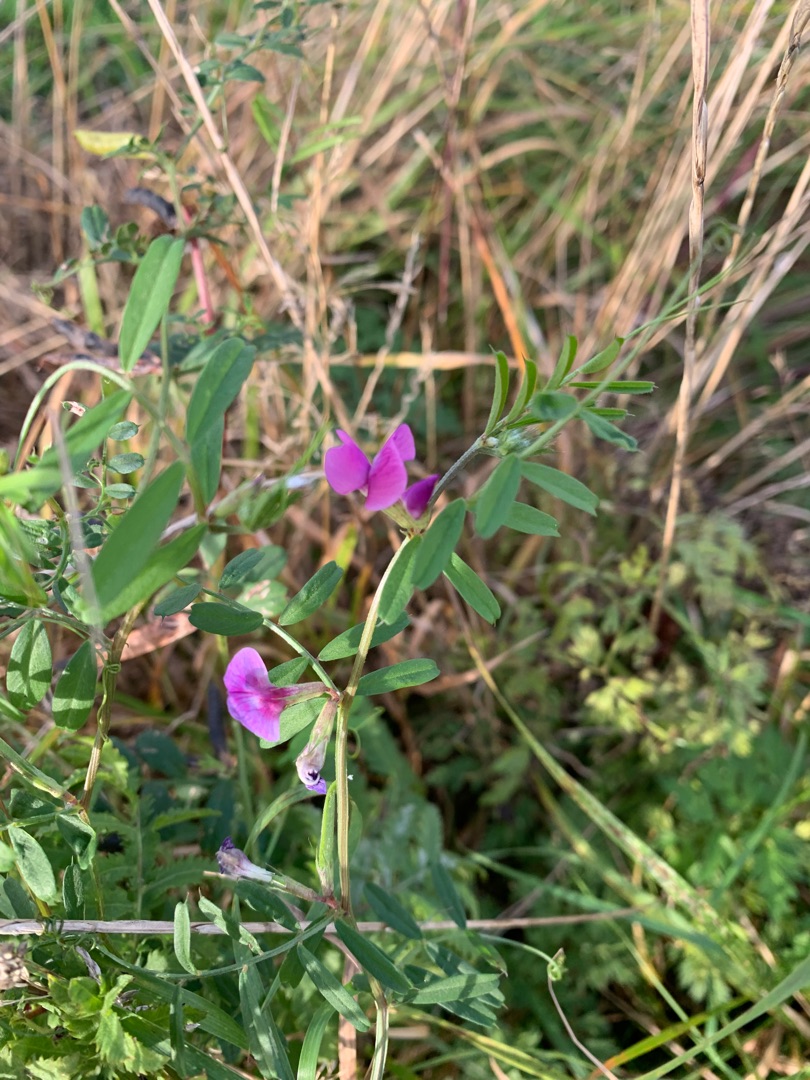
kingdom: Plantae
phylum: Tracheophyta
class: Magnoliopsida
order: Fabales
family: Fabaceae
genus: Vicia
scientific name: Vicia sativa
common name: Foder-vikke
